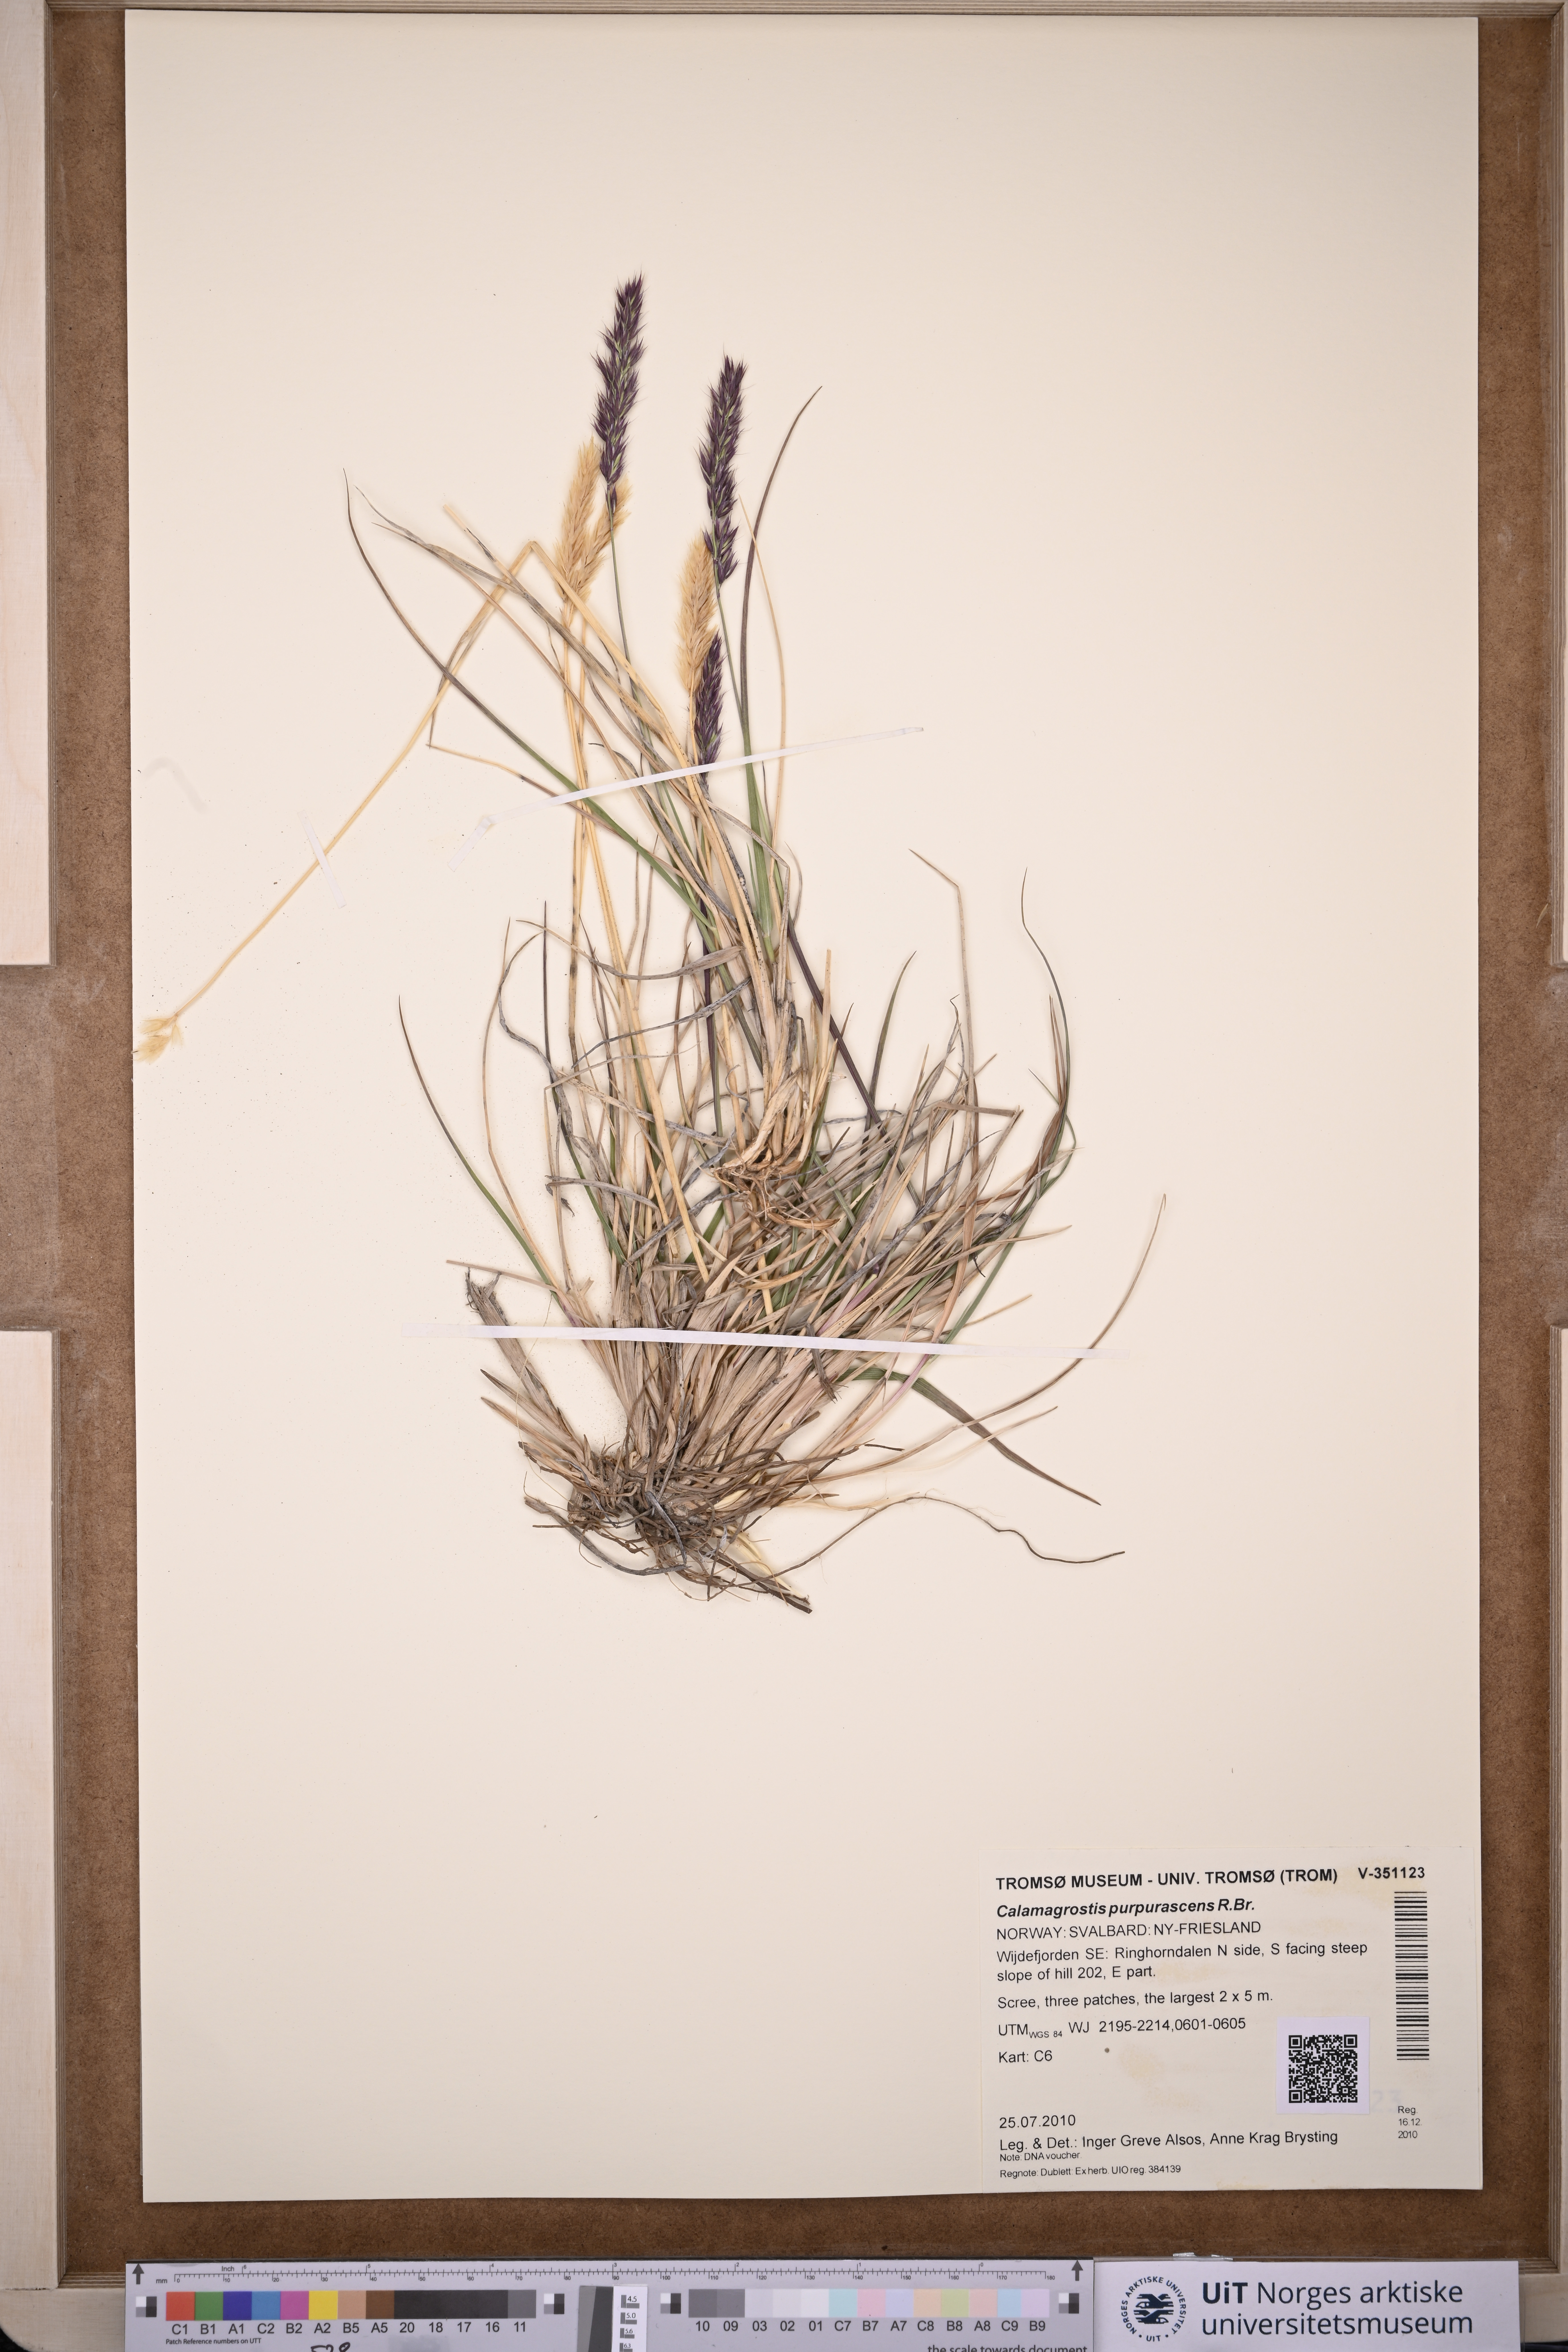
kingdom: Plantae
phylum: Tracheophyta
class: Liliopsida
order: Poales
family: Poaceae
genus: Calamagrostis
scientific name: Calamagrostis purpurascens
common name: Purple reedgrass
